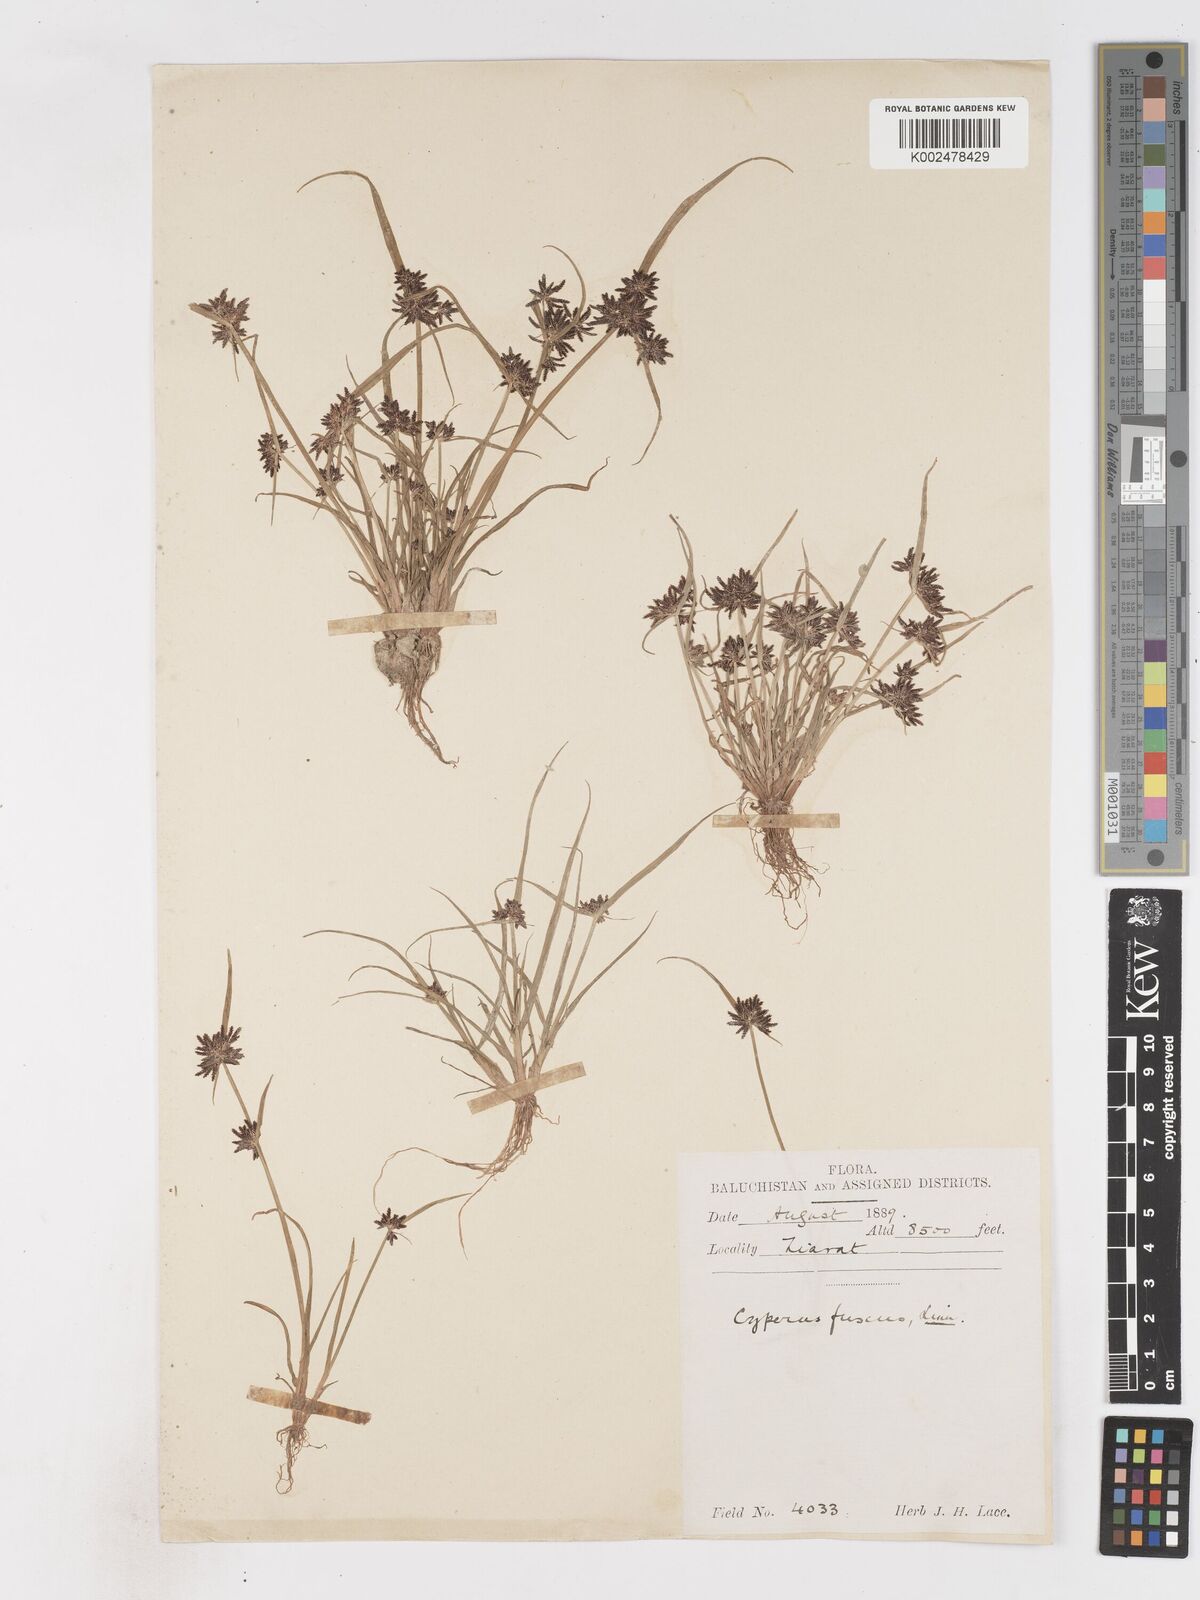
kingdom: Plantae
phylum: Tracheophyta
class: Liliopsida
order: Poales
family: Cyperaceae
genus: Cyperus
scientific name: Cyperus fuscus
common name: Brown galingale
